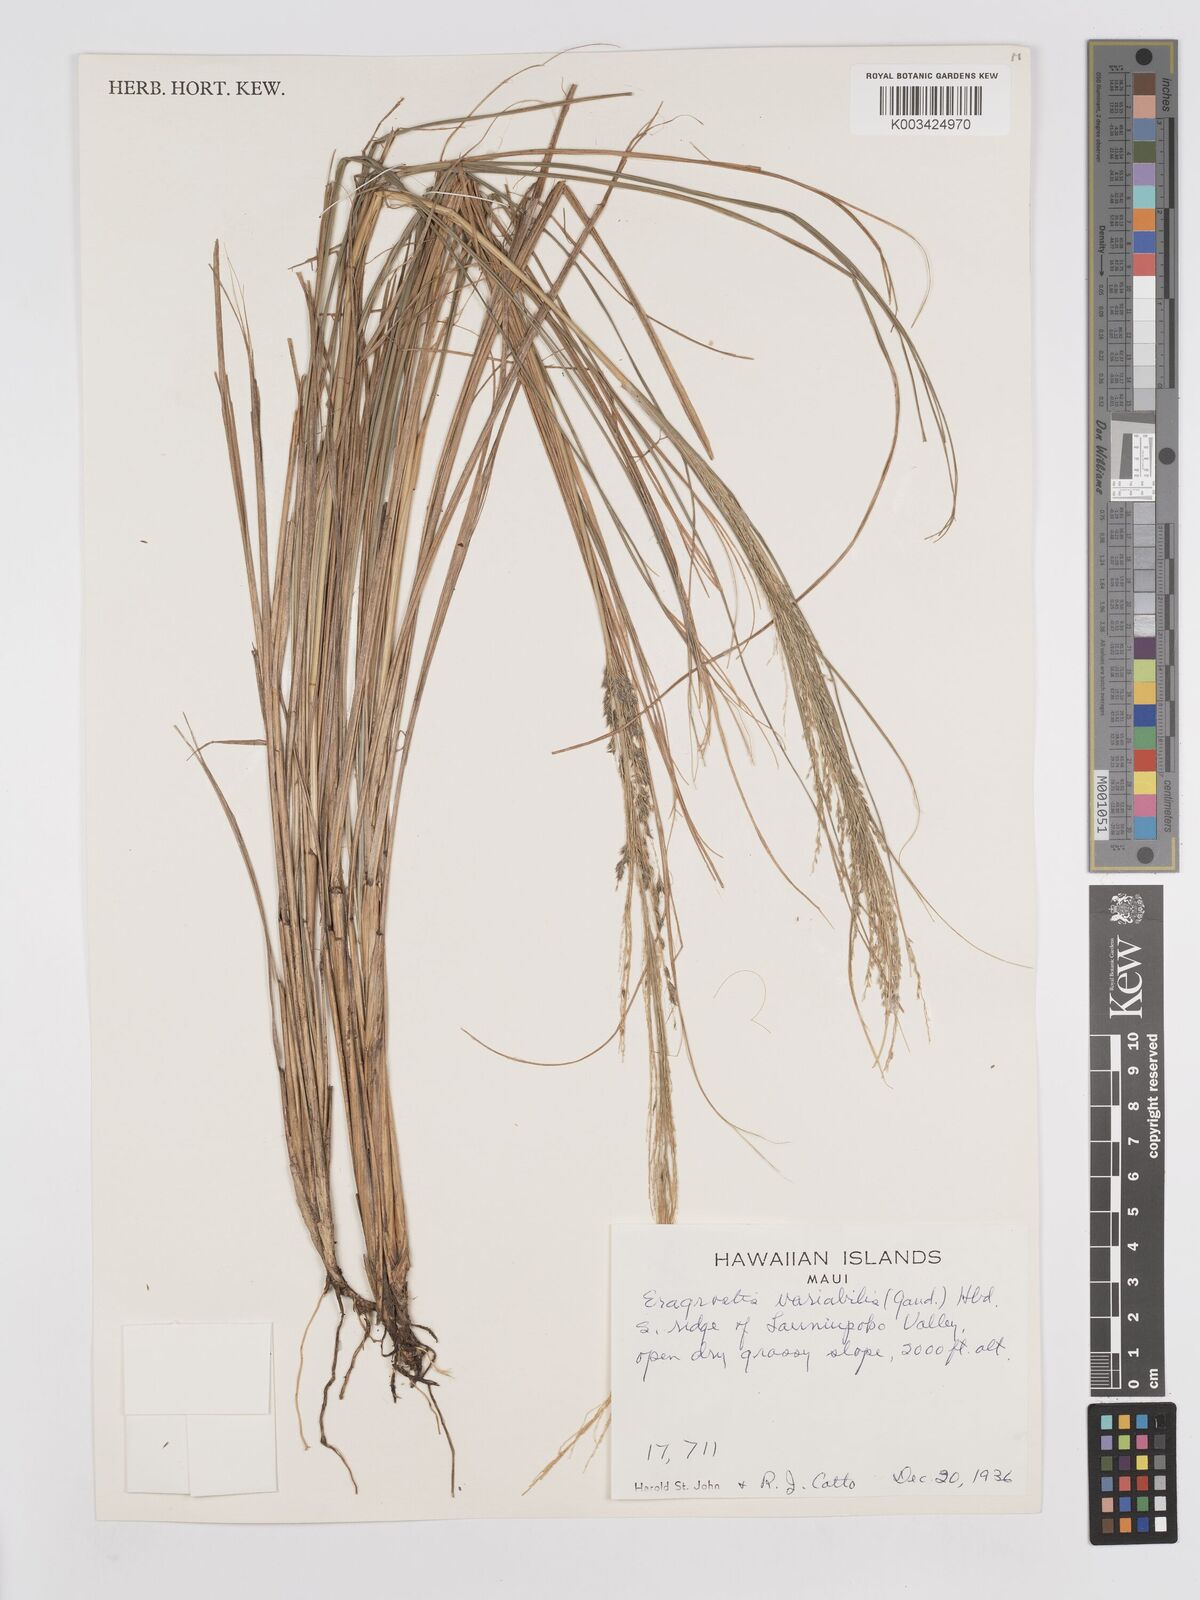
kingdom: Plantae
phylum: Tracheophyta
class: Liliopsida
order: Poales
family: Poaceae
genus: Eragrostis
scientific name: Eragrostis grandis
